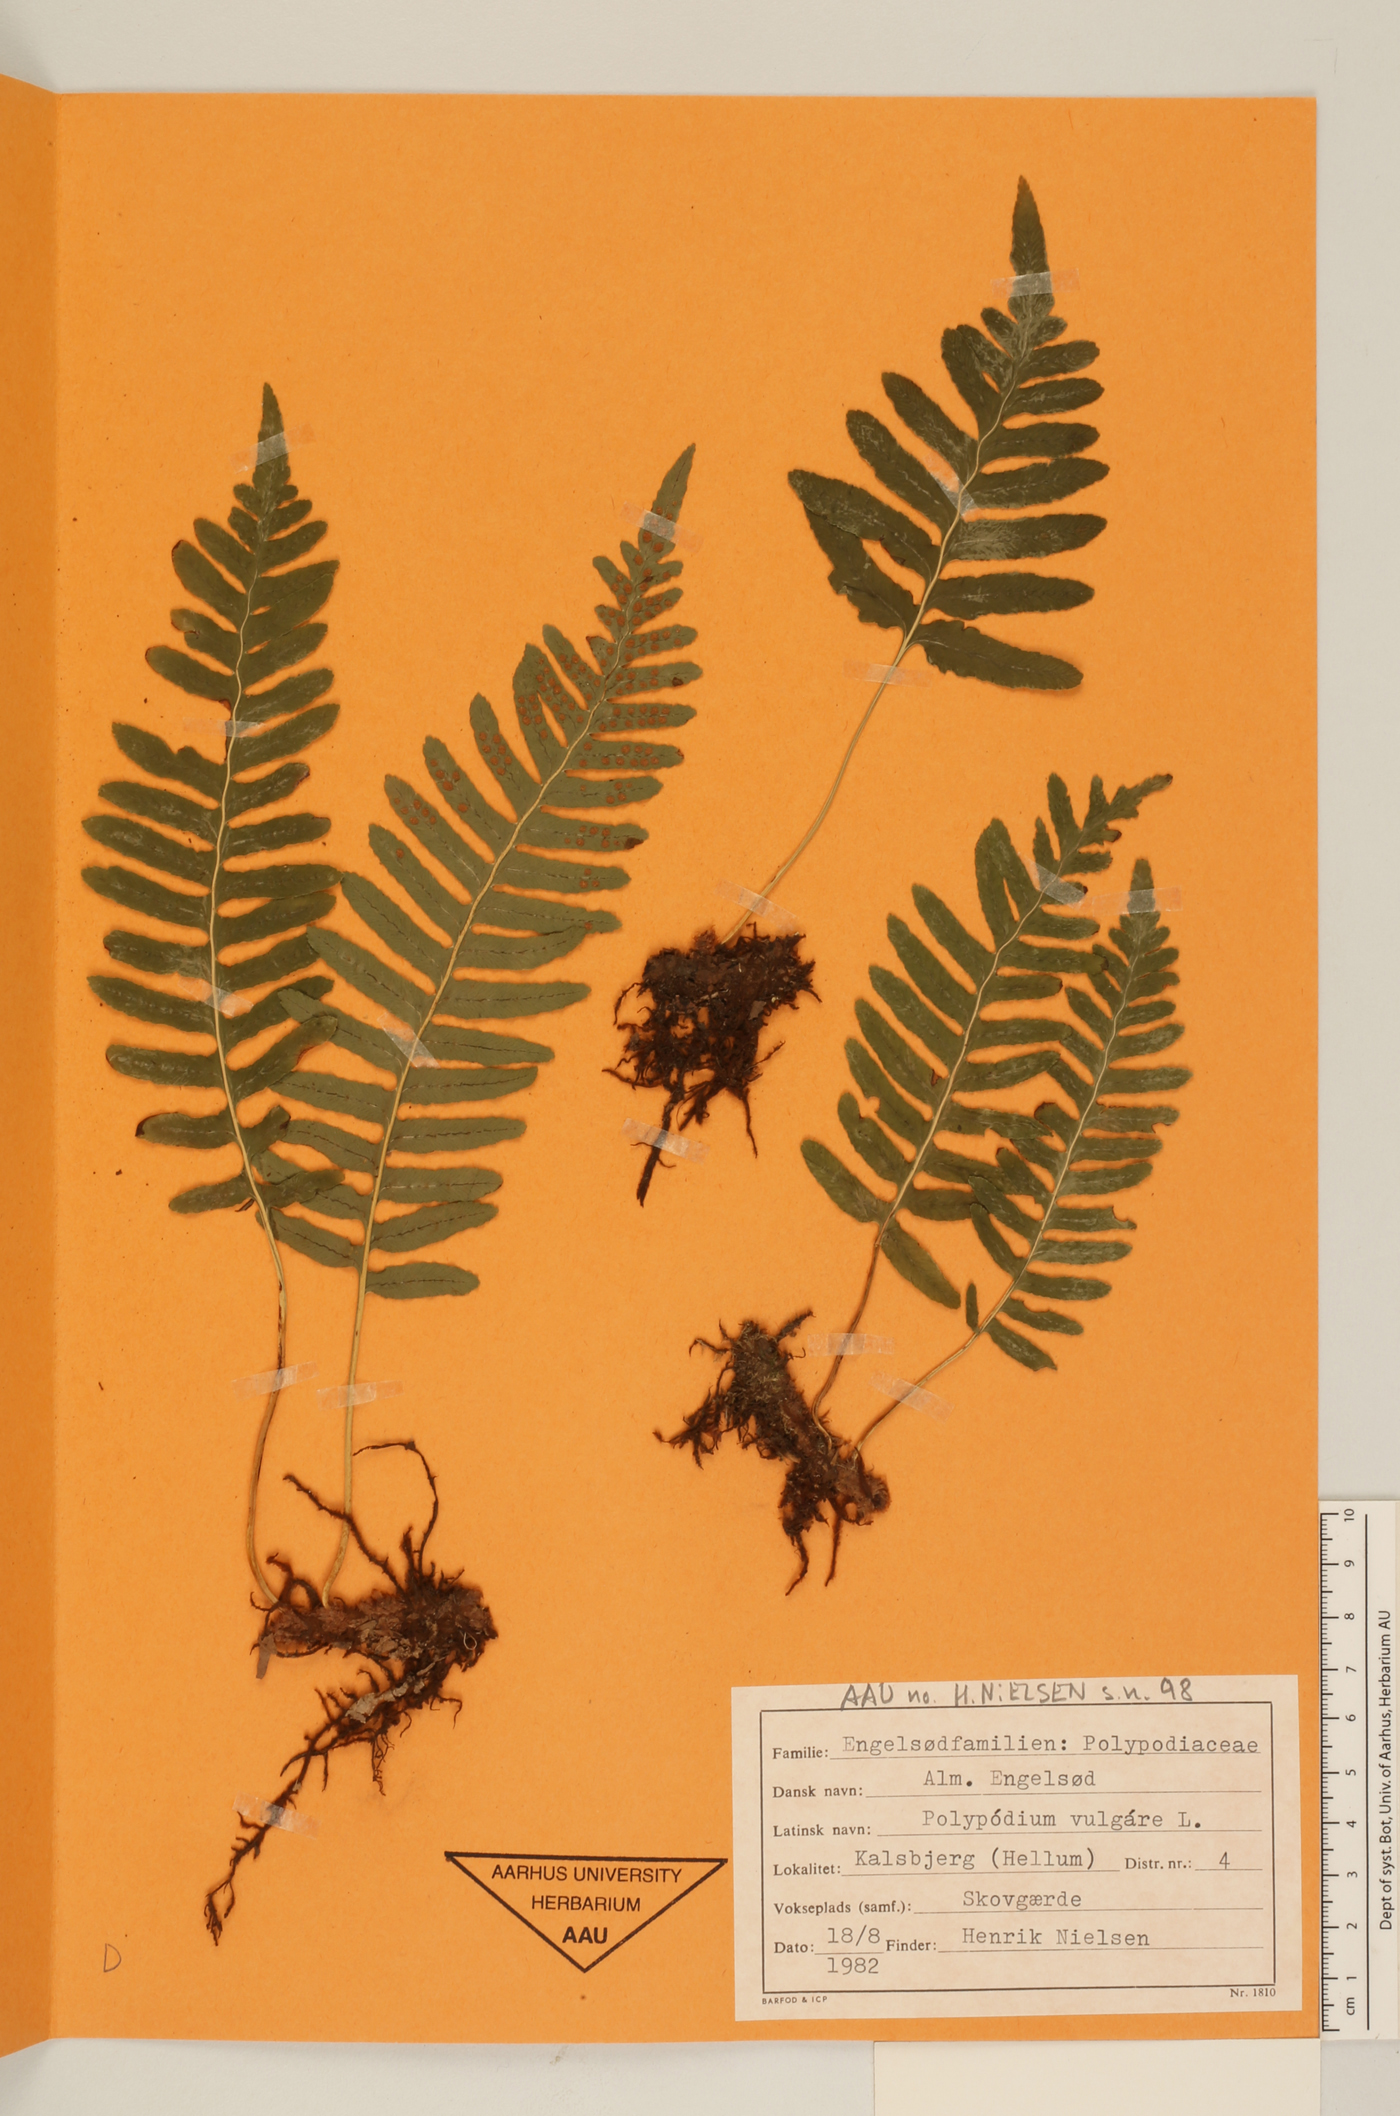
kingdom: Plantae
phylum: Tracheophyta
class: Polypodiopsida
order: Polypodiales
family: Polypodiaceae
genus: Polypodium
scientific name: Polypodium vulgare
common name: Common polypody
